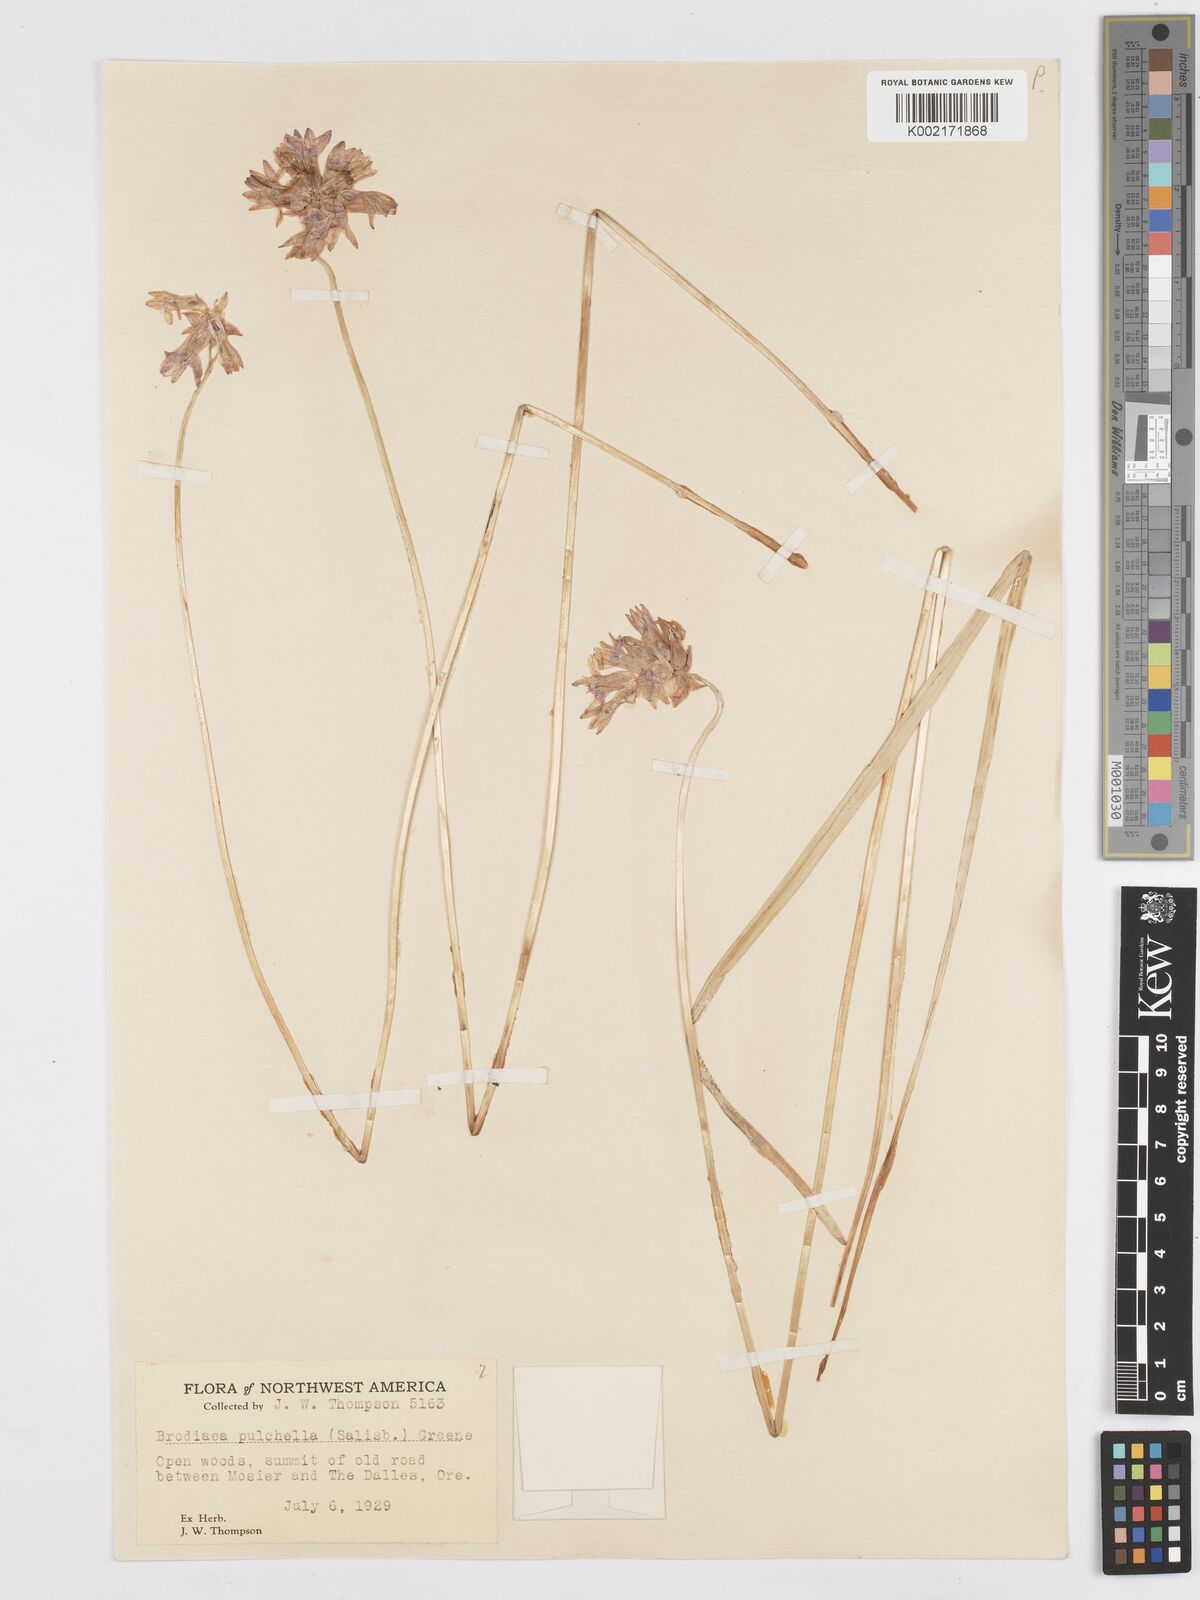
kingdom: Plantae
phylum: Tracheophyta
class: Liliopsida
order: Asparagales
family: Asparagaceae
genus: Dichelostemma
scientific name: Dichelostemma congestum
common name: Fork-tooth ookow
